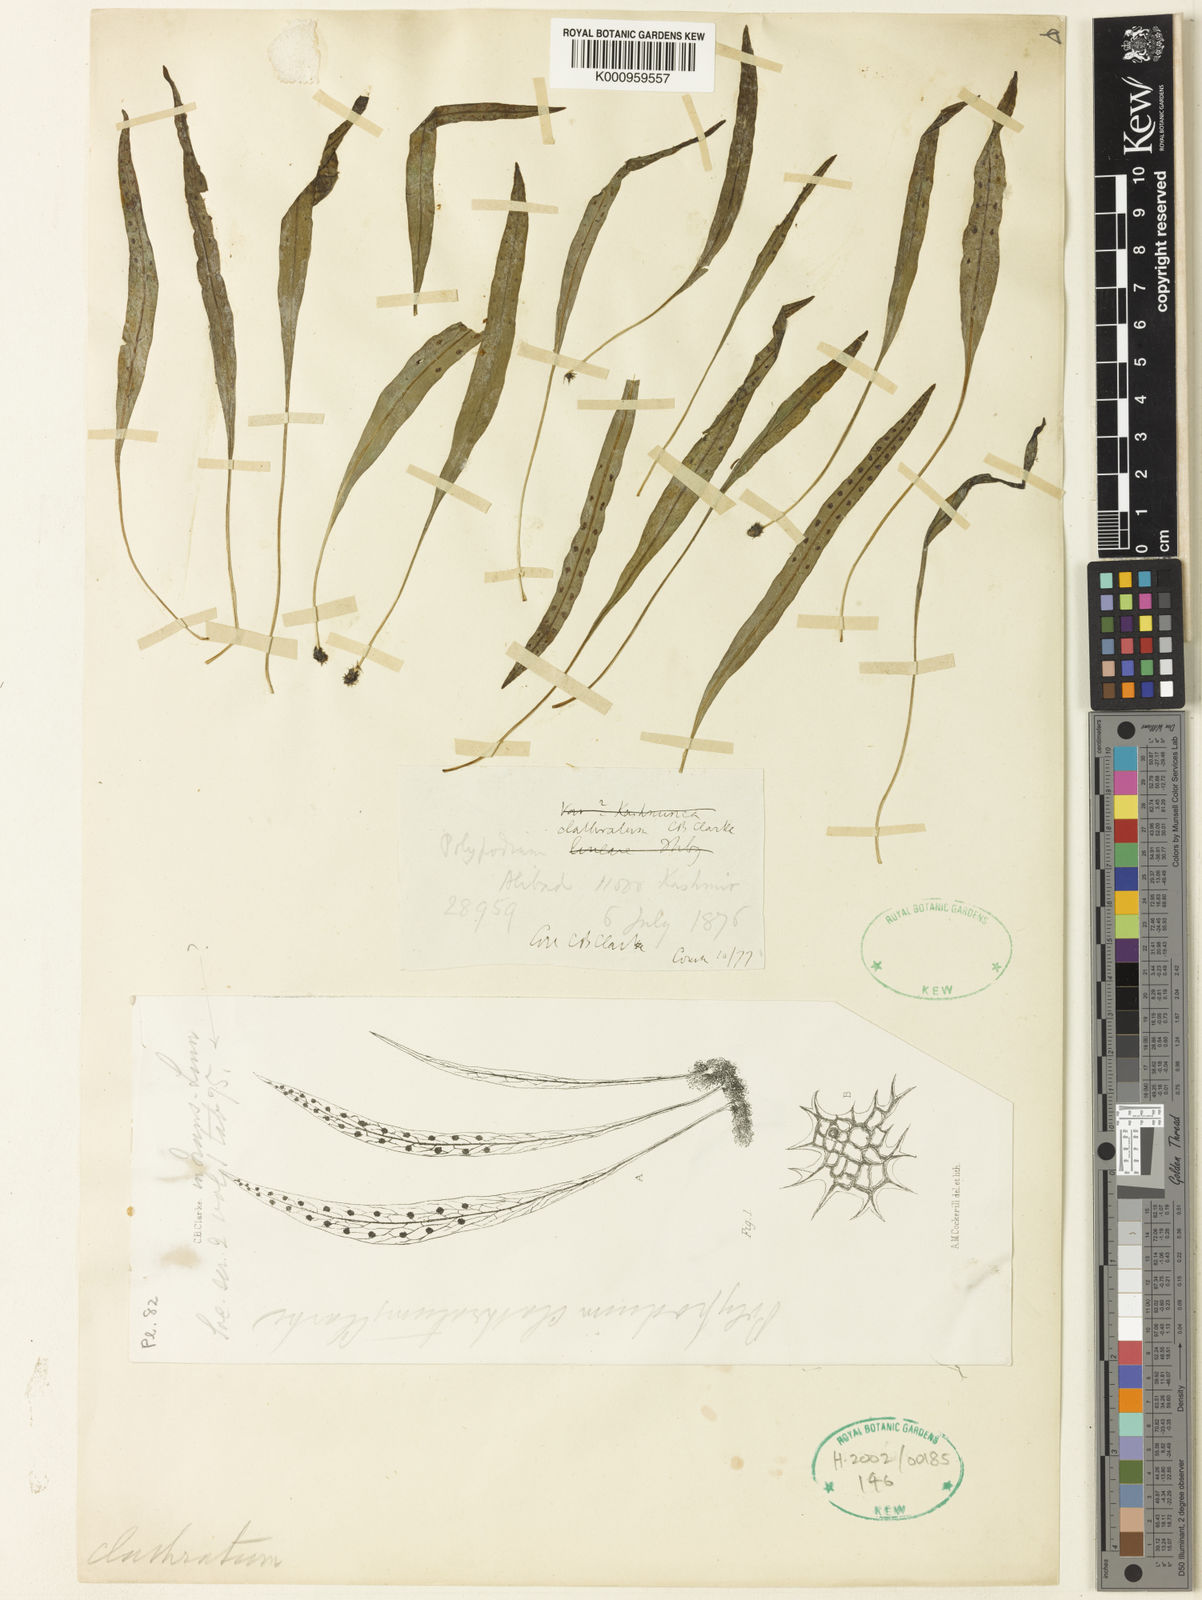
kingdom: Plantae
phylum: Tracheophyta
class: Polypodiopsida
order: Polypodiales
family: Polypodiaceae
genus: Lepisorus
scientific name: Lepisorus clathratus
